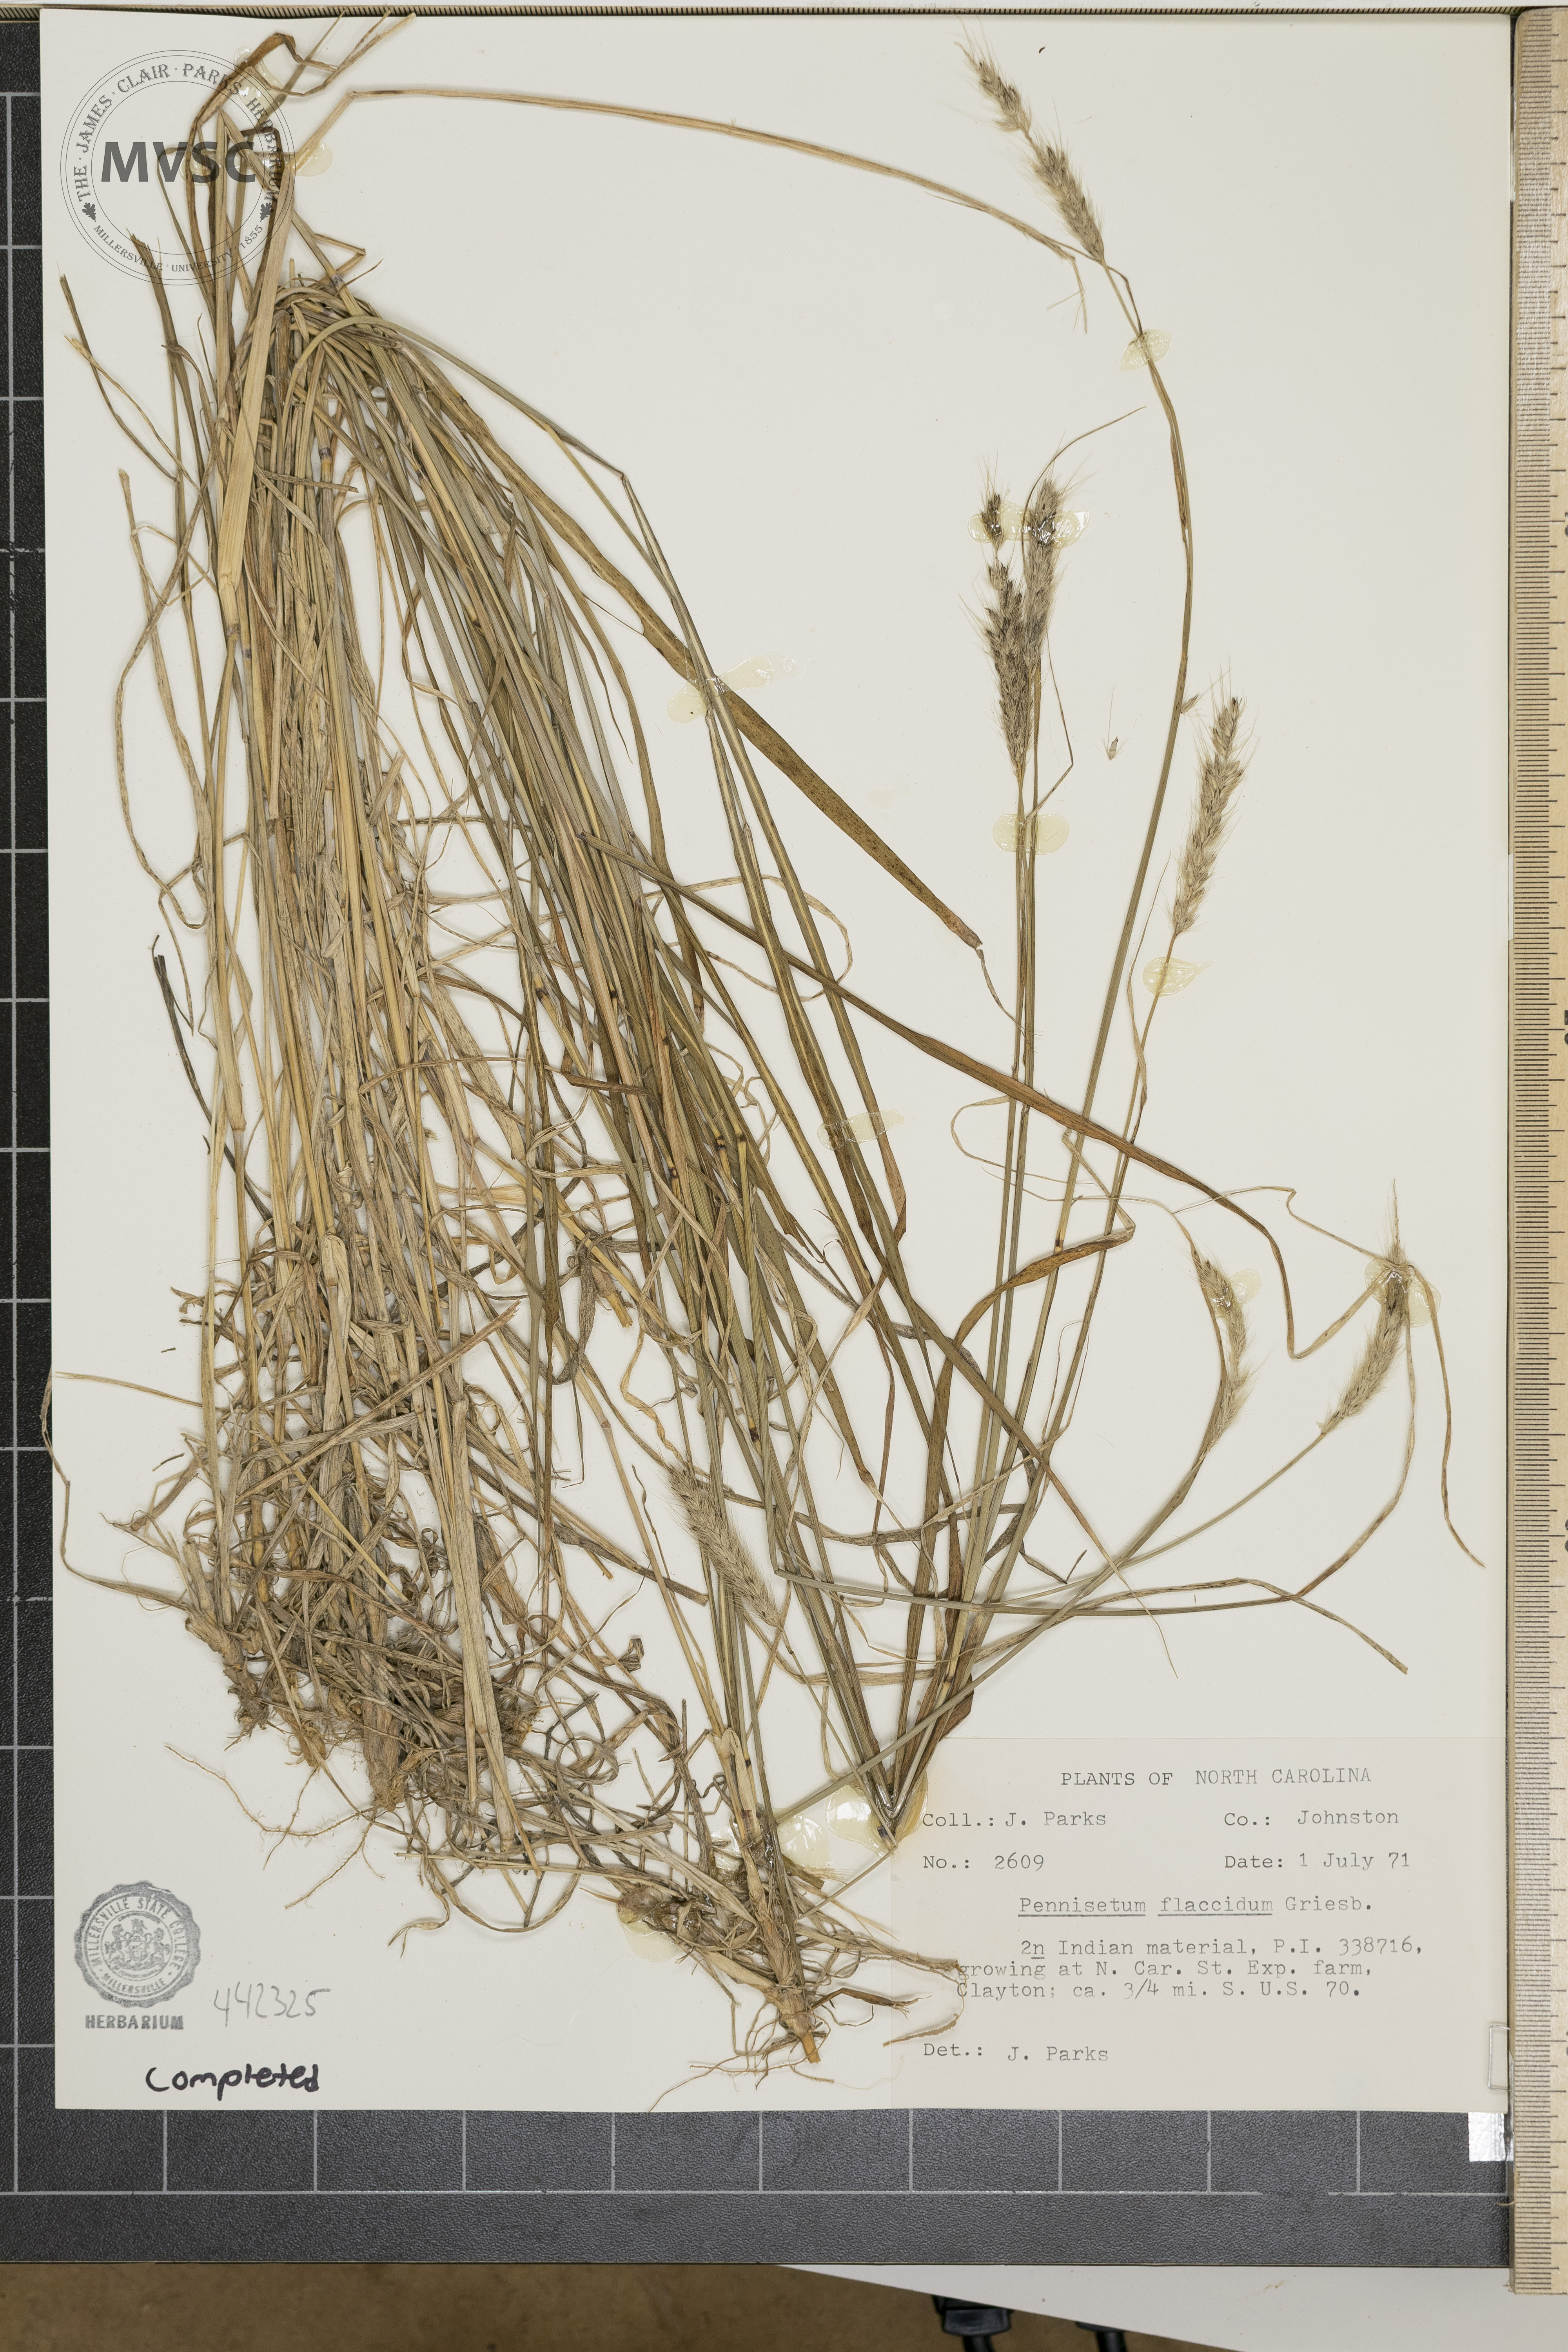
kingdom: Plantae
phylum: Tracheophyta
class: Liliopsida
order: Poales
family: Poaceae
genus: Cenchrus
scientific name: Cenchrus flaccidus
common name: Flaccid grass
